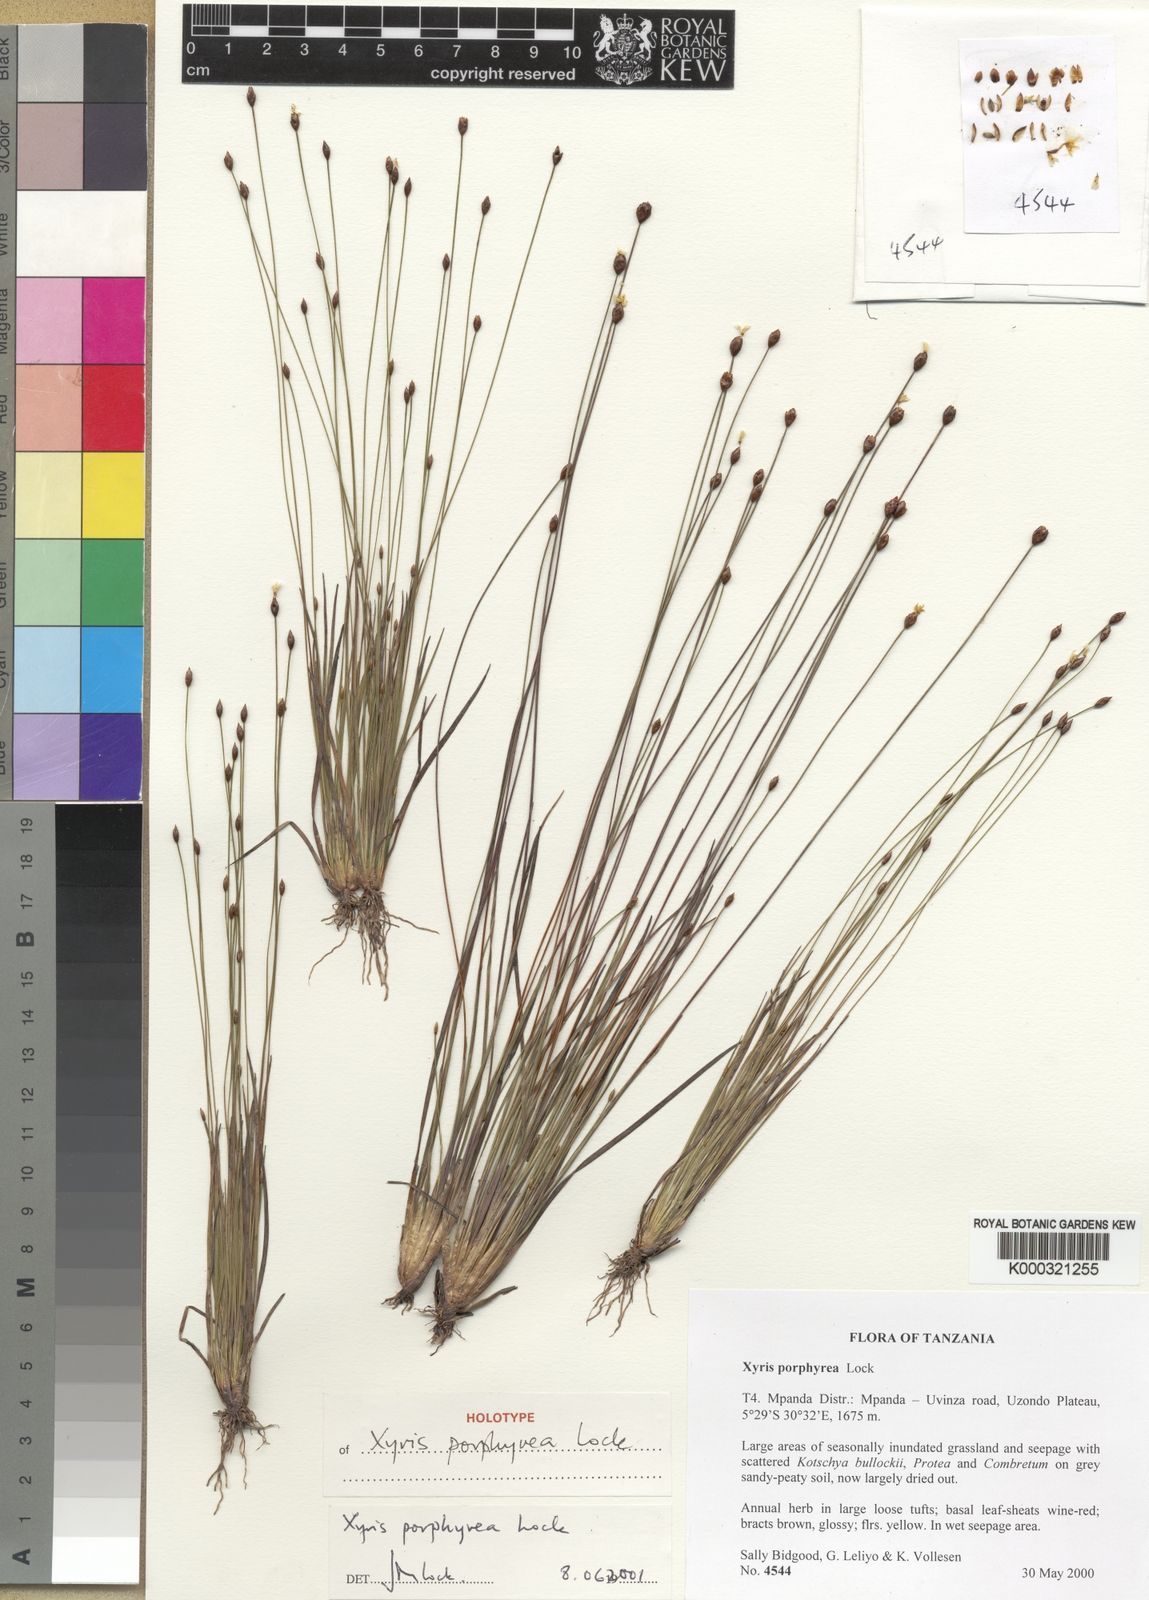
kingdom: Plantae
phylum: Tracheophyta
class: Liliopsida
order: Poales
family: Xyridaceae
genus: Xyris
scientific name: Xyris porphyrea
